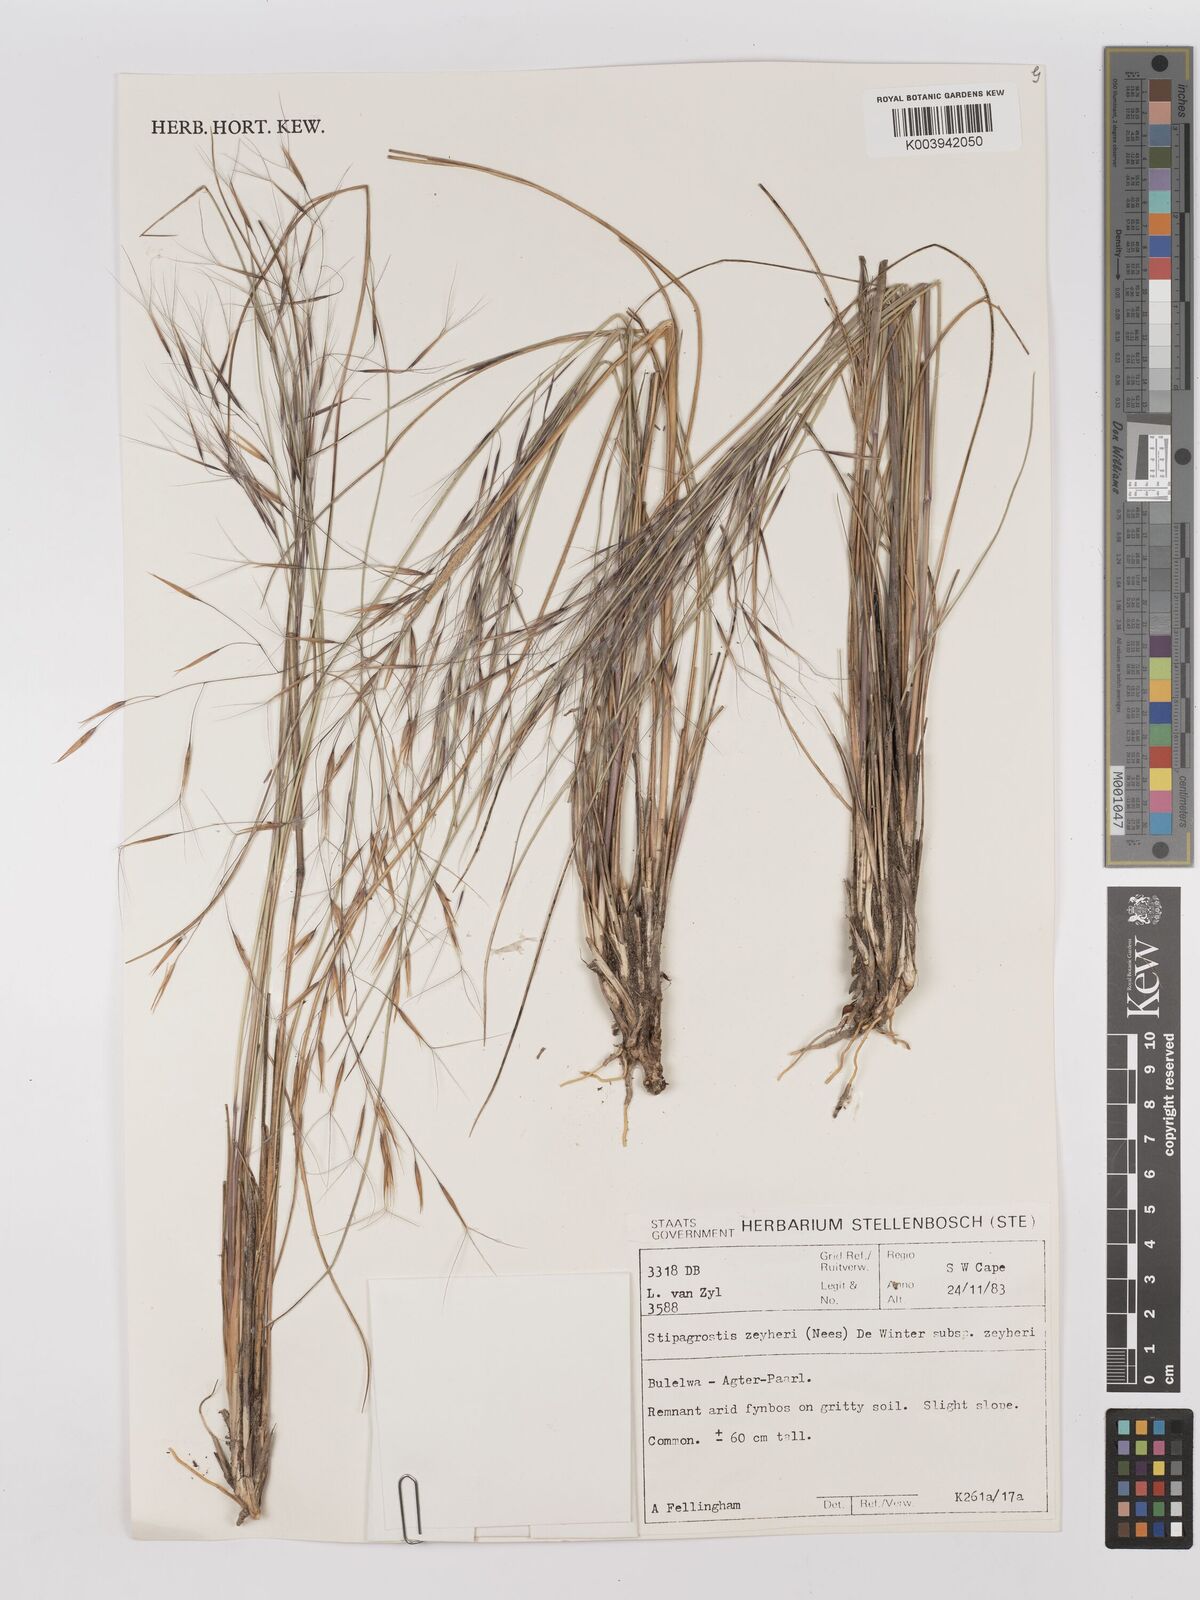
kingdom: Plantae
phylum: Tracheophyta
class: Liliopsida
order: Poales
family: Poaceae
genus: Stipagrostis
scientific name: Stipagrostis zeyheri
